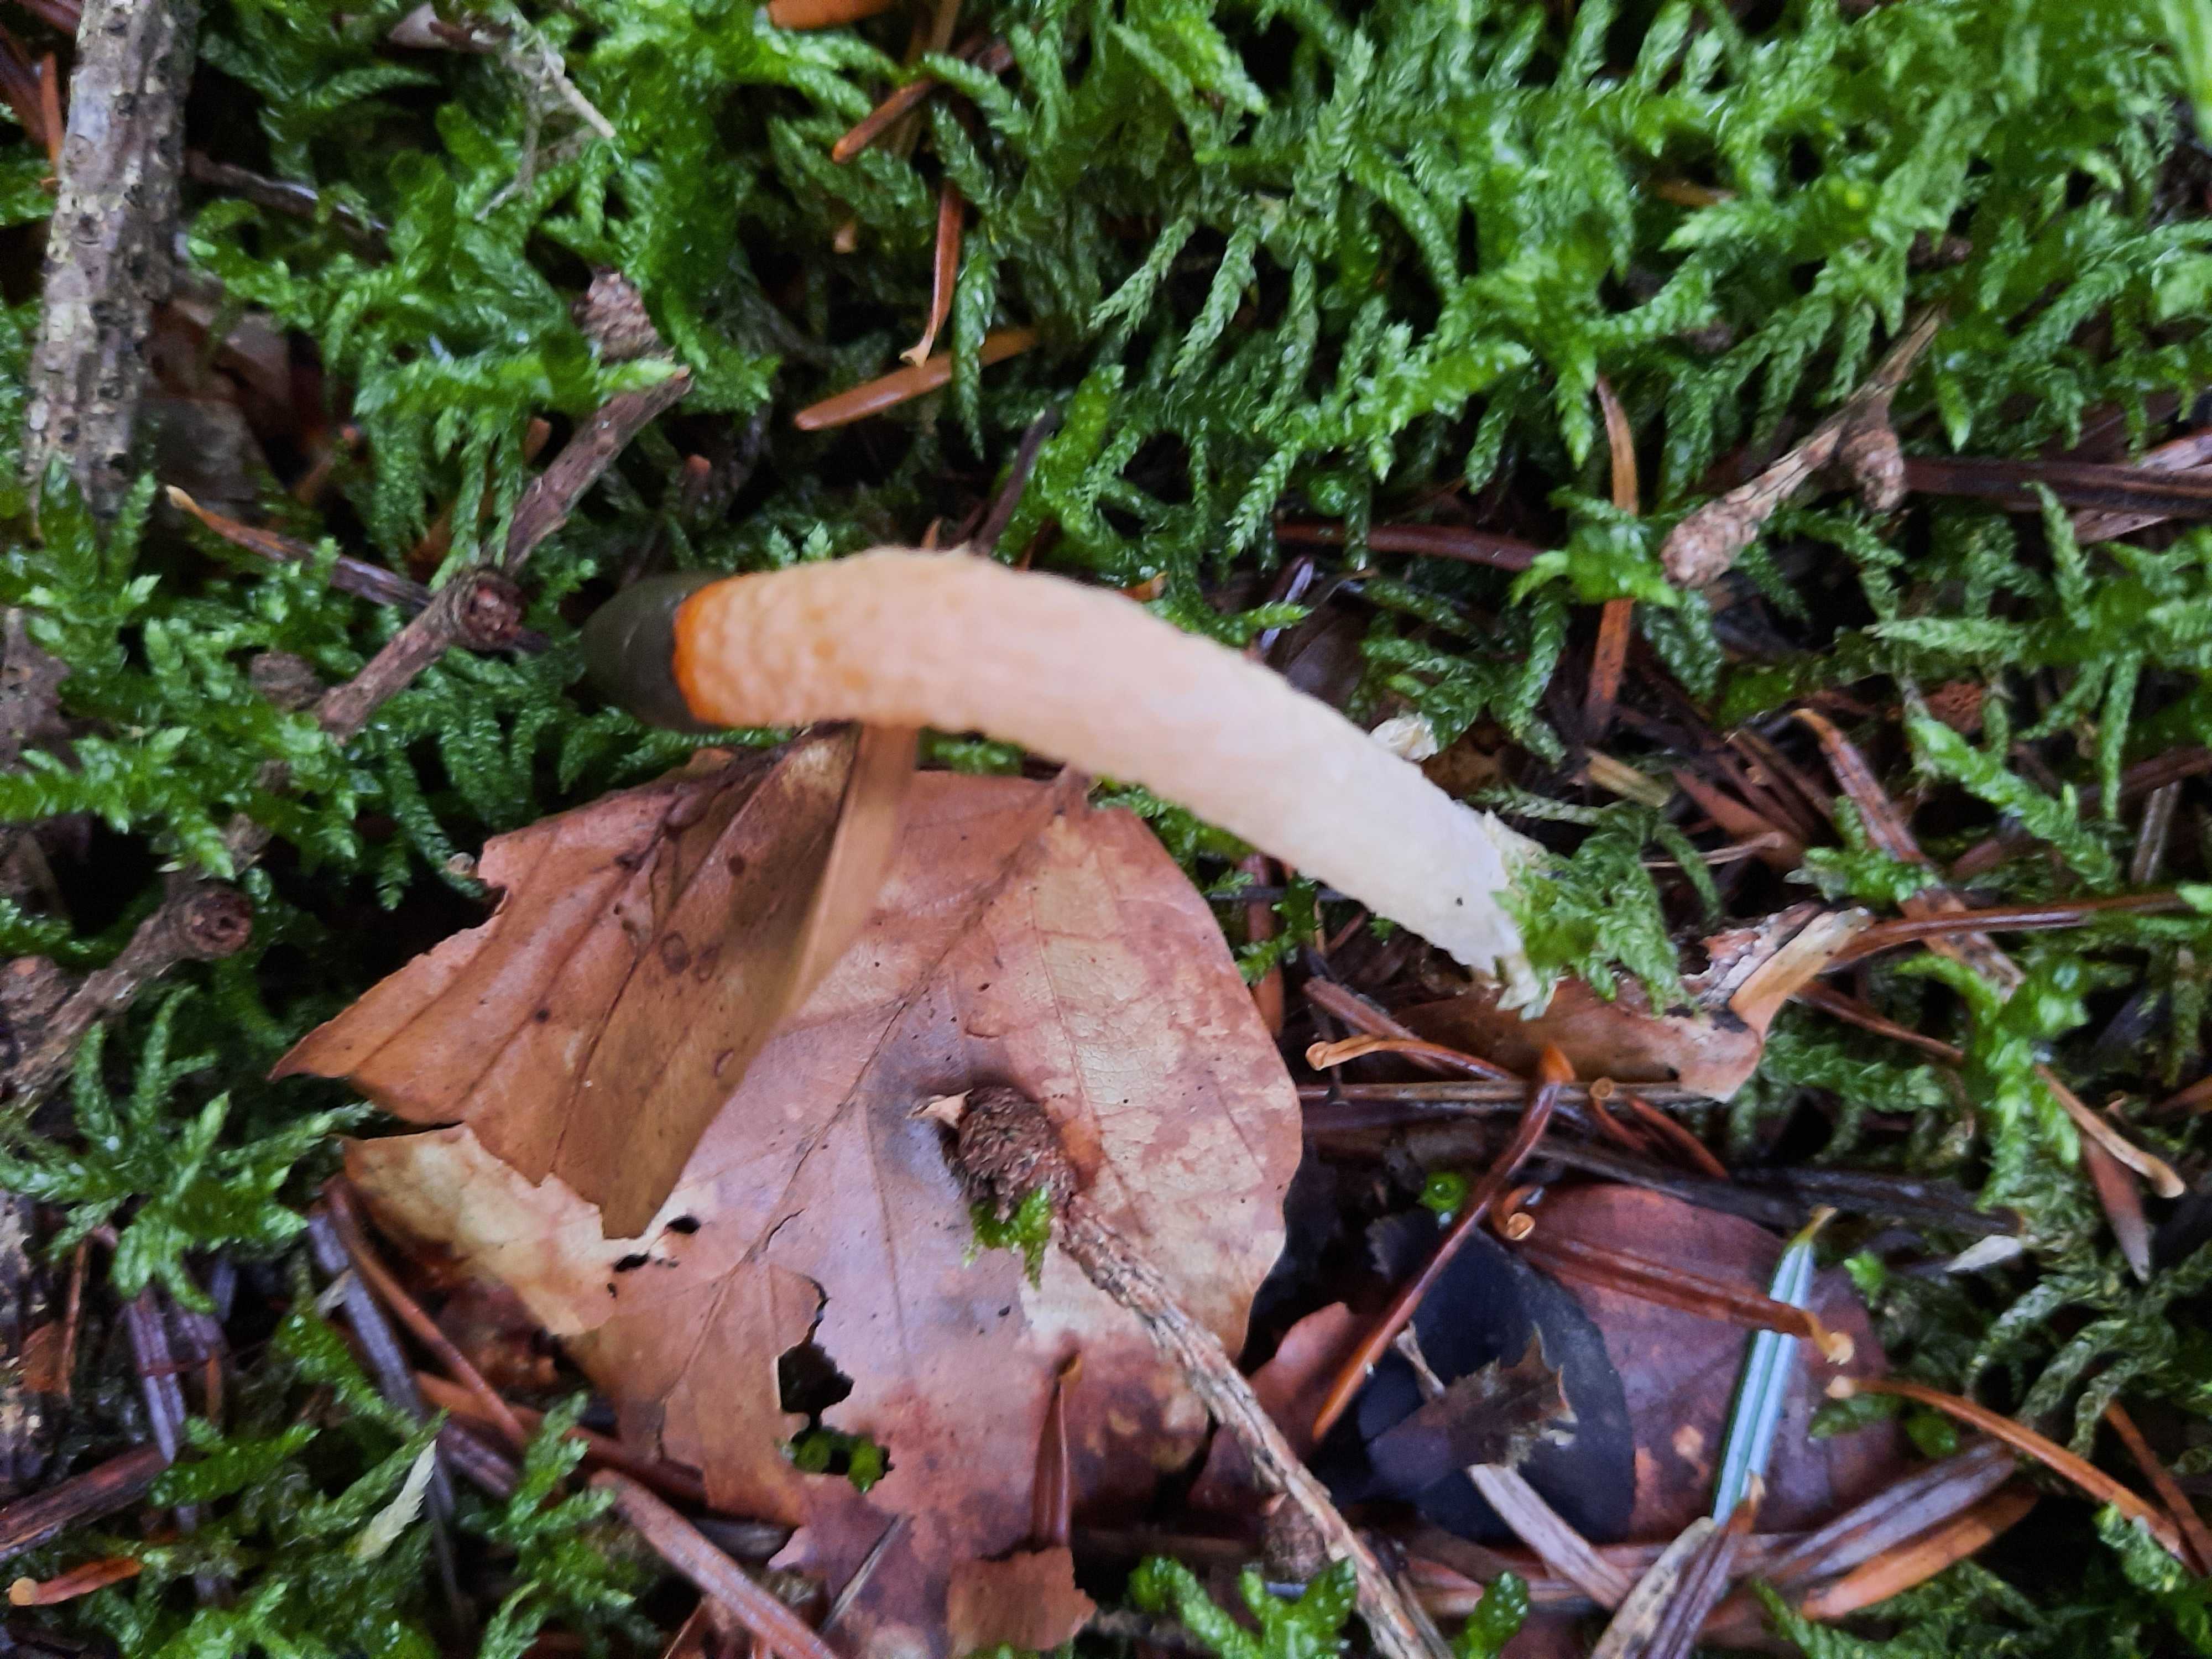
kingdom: Fungi
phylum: Basidiomycota
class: Agaricomycetes
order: Phallales
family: Phallaceae
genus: Mutinus
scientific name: Mutinus caninus
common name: hunde-stinksvamp
